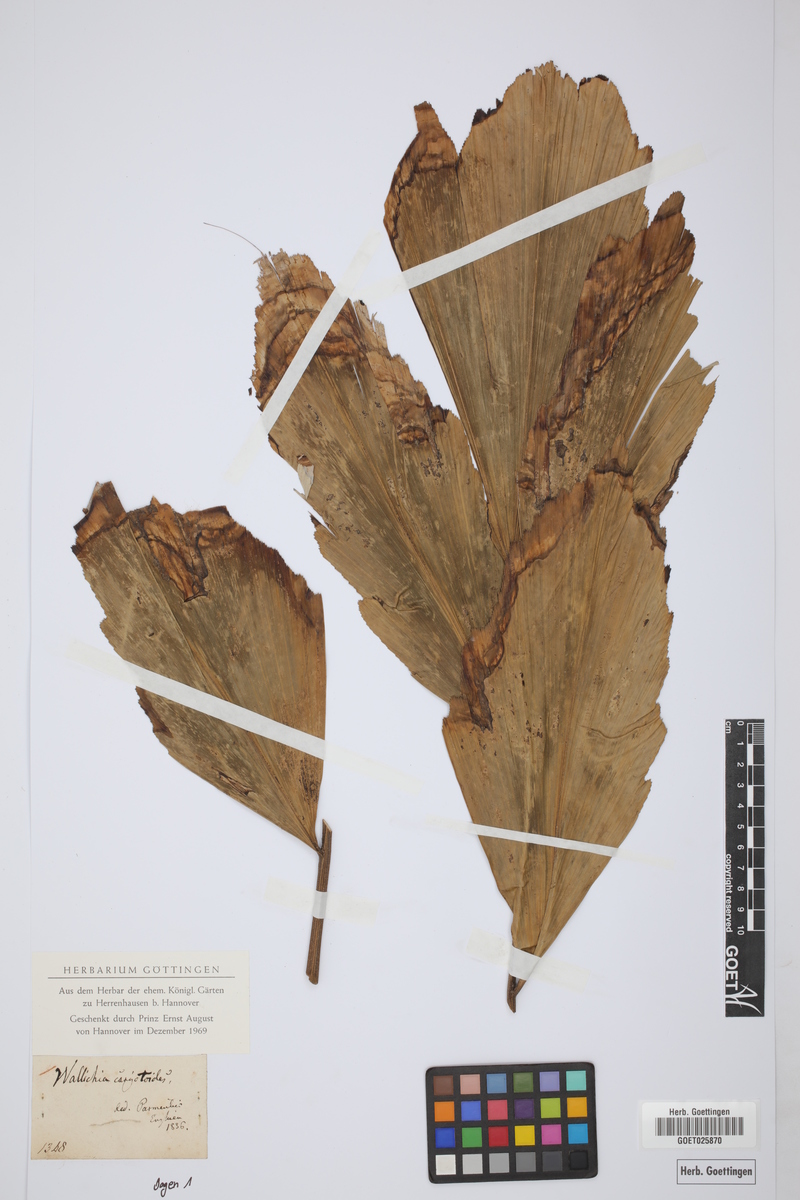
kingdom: Plantae
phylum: Tracheophyta
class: Liliopsida
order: Arecales
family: Arecaceae
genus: Wallichia
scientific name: Wallichia caryotoides
